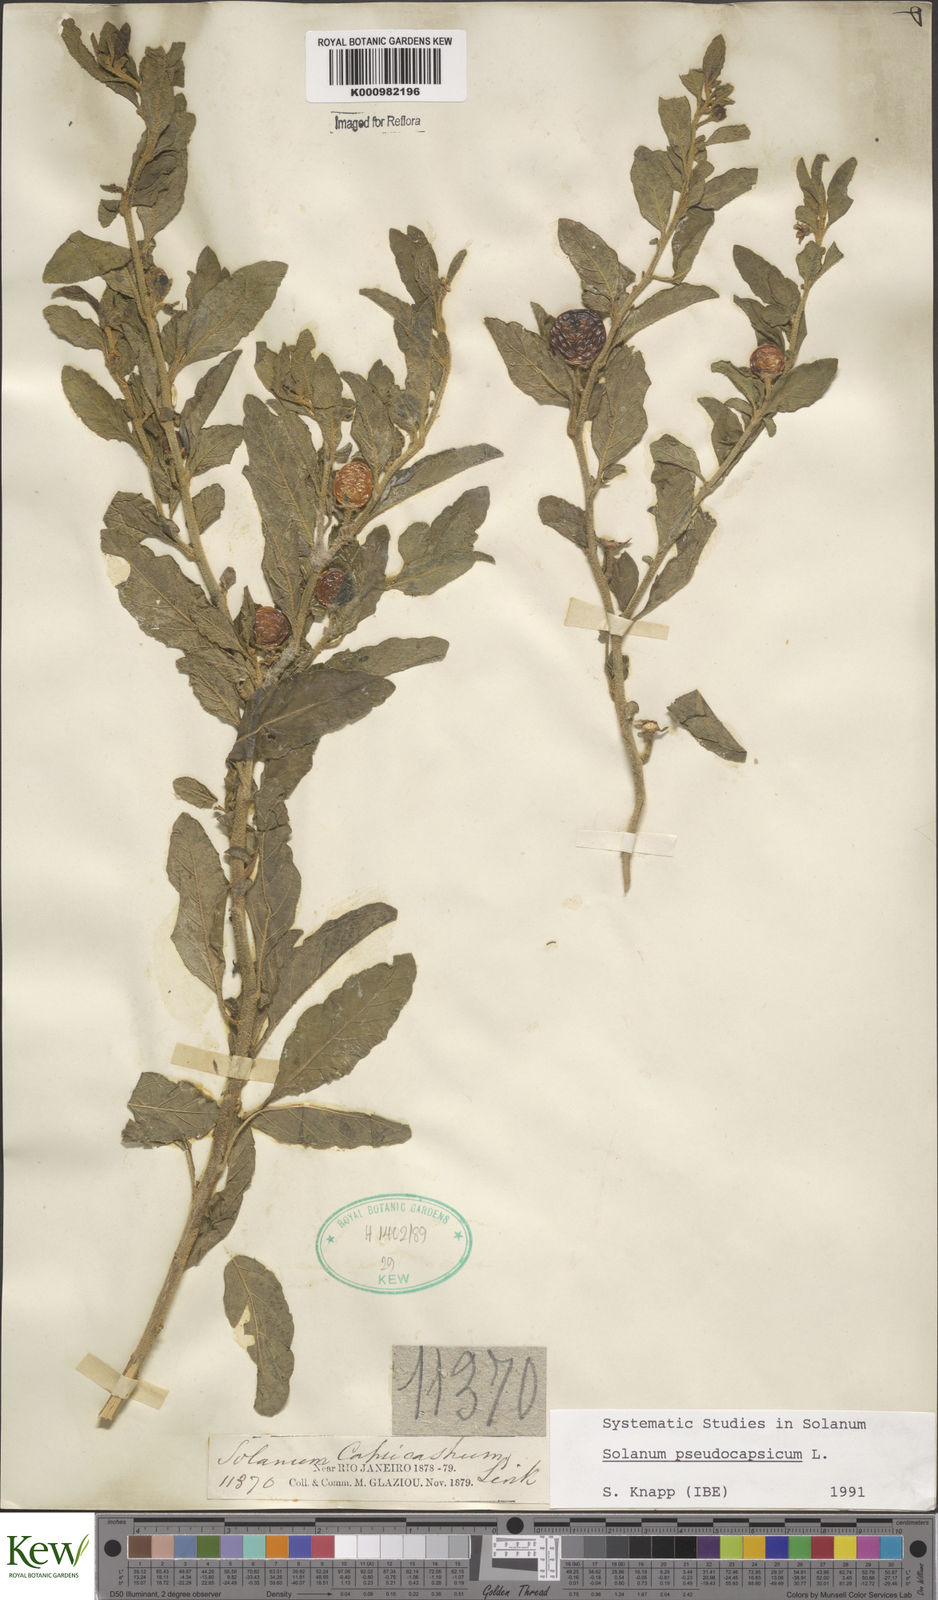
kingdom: Plantae
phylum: Tracheophyta
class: Magnoliopsida
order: Solanales
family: Solanaceae
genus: Solanum
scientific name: Solanum pseudocapsicum
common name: Jerusalem cherry
